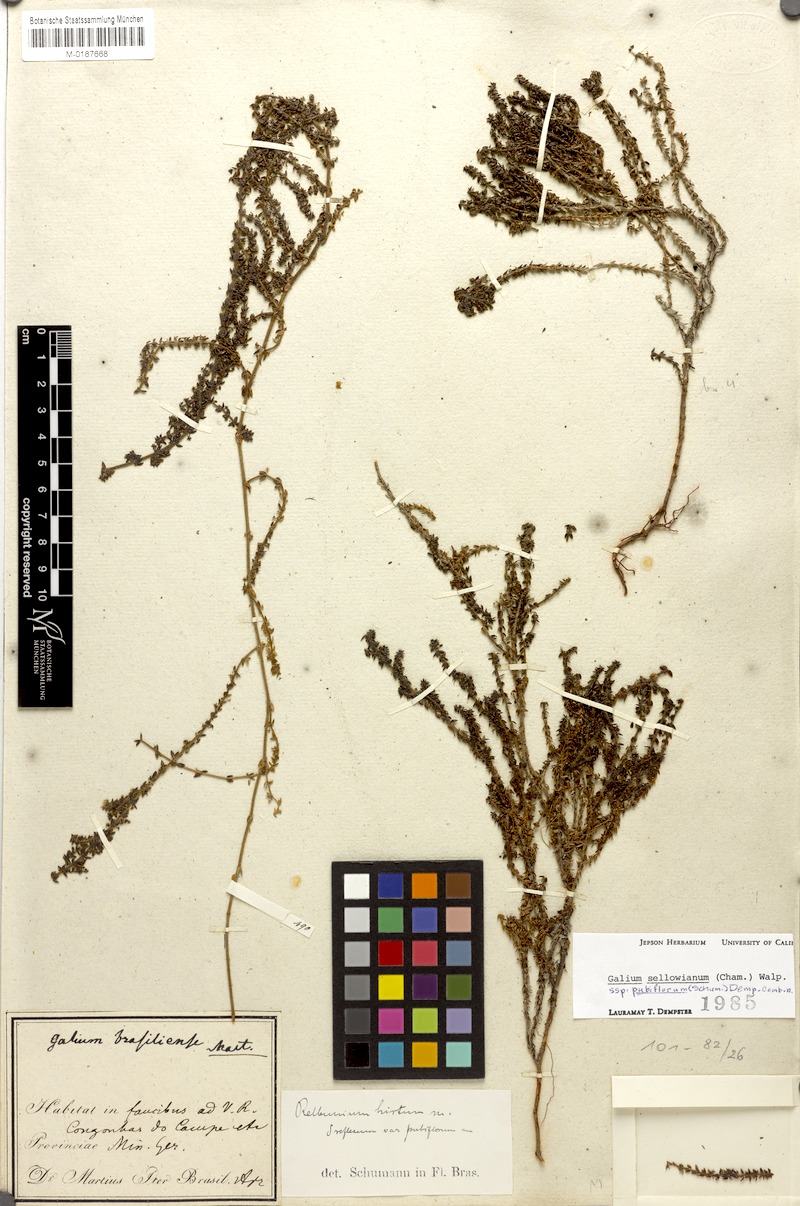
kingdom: Plantae
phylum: Tracheophyta
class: Magnoliopsida
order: Gentianales
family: Rubiaceae
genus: Galium
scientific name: Galium sellowianum
